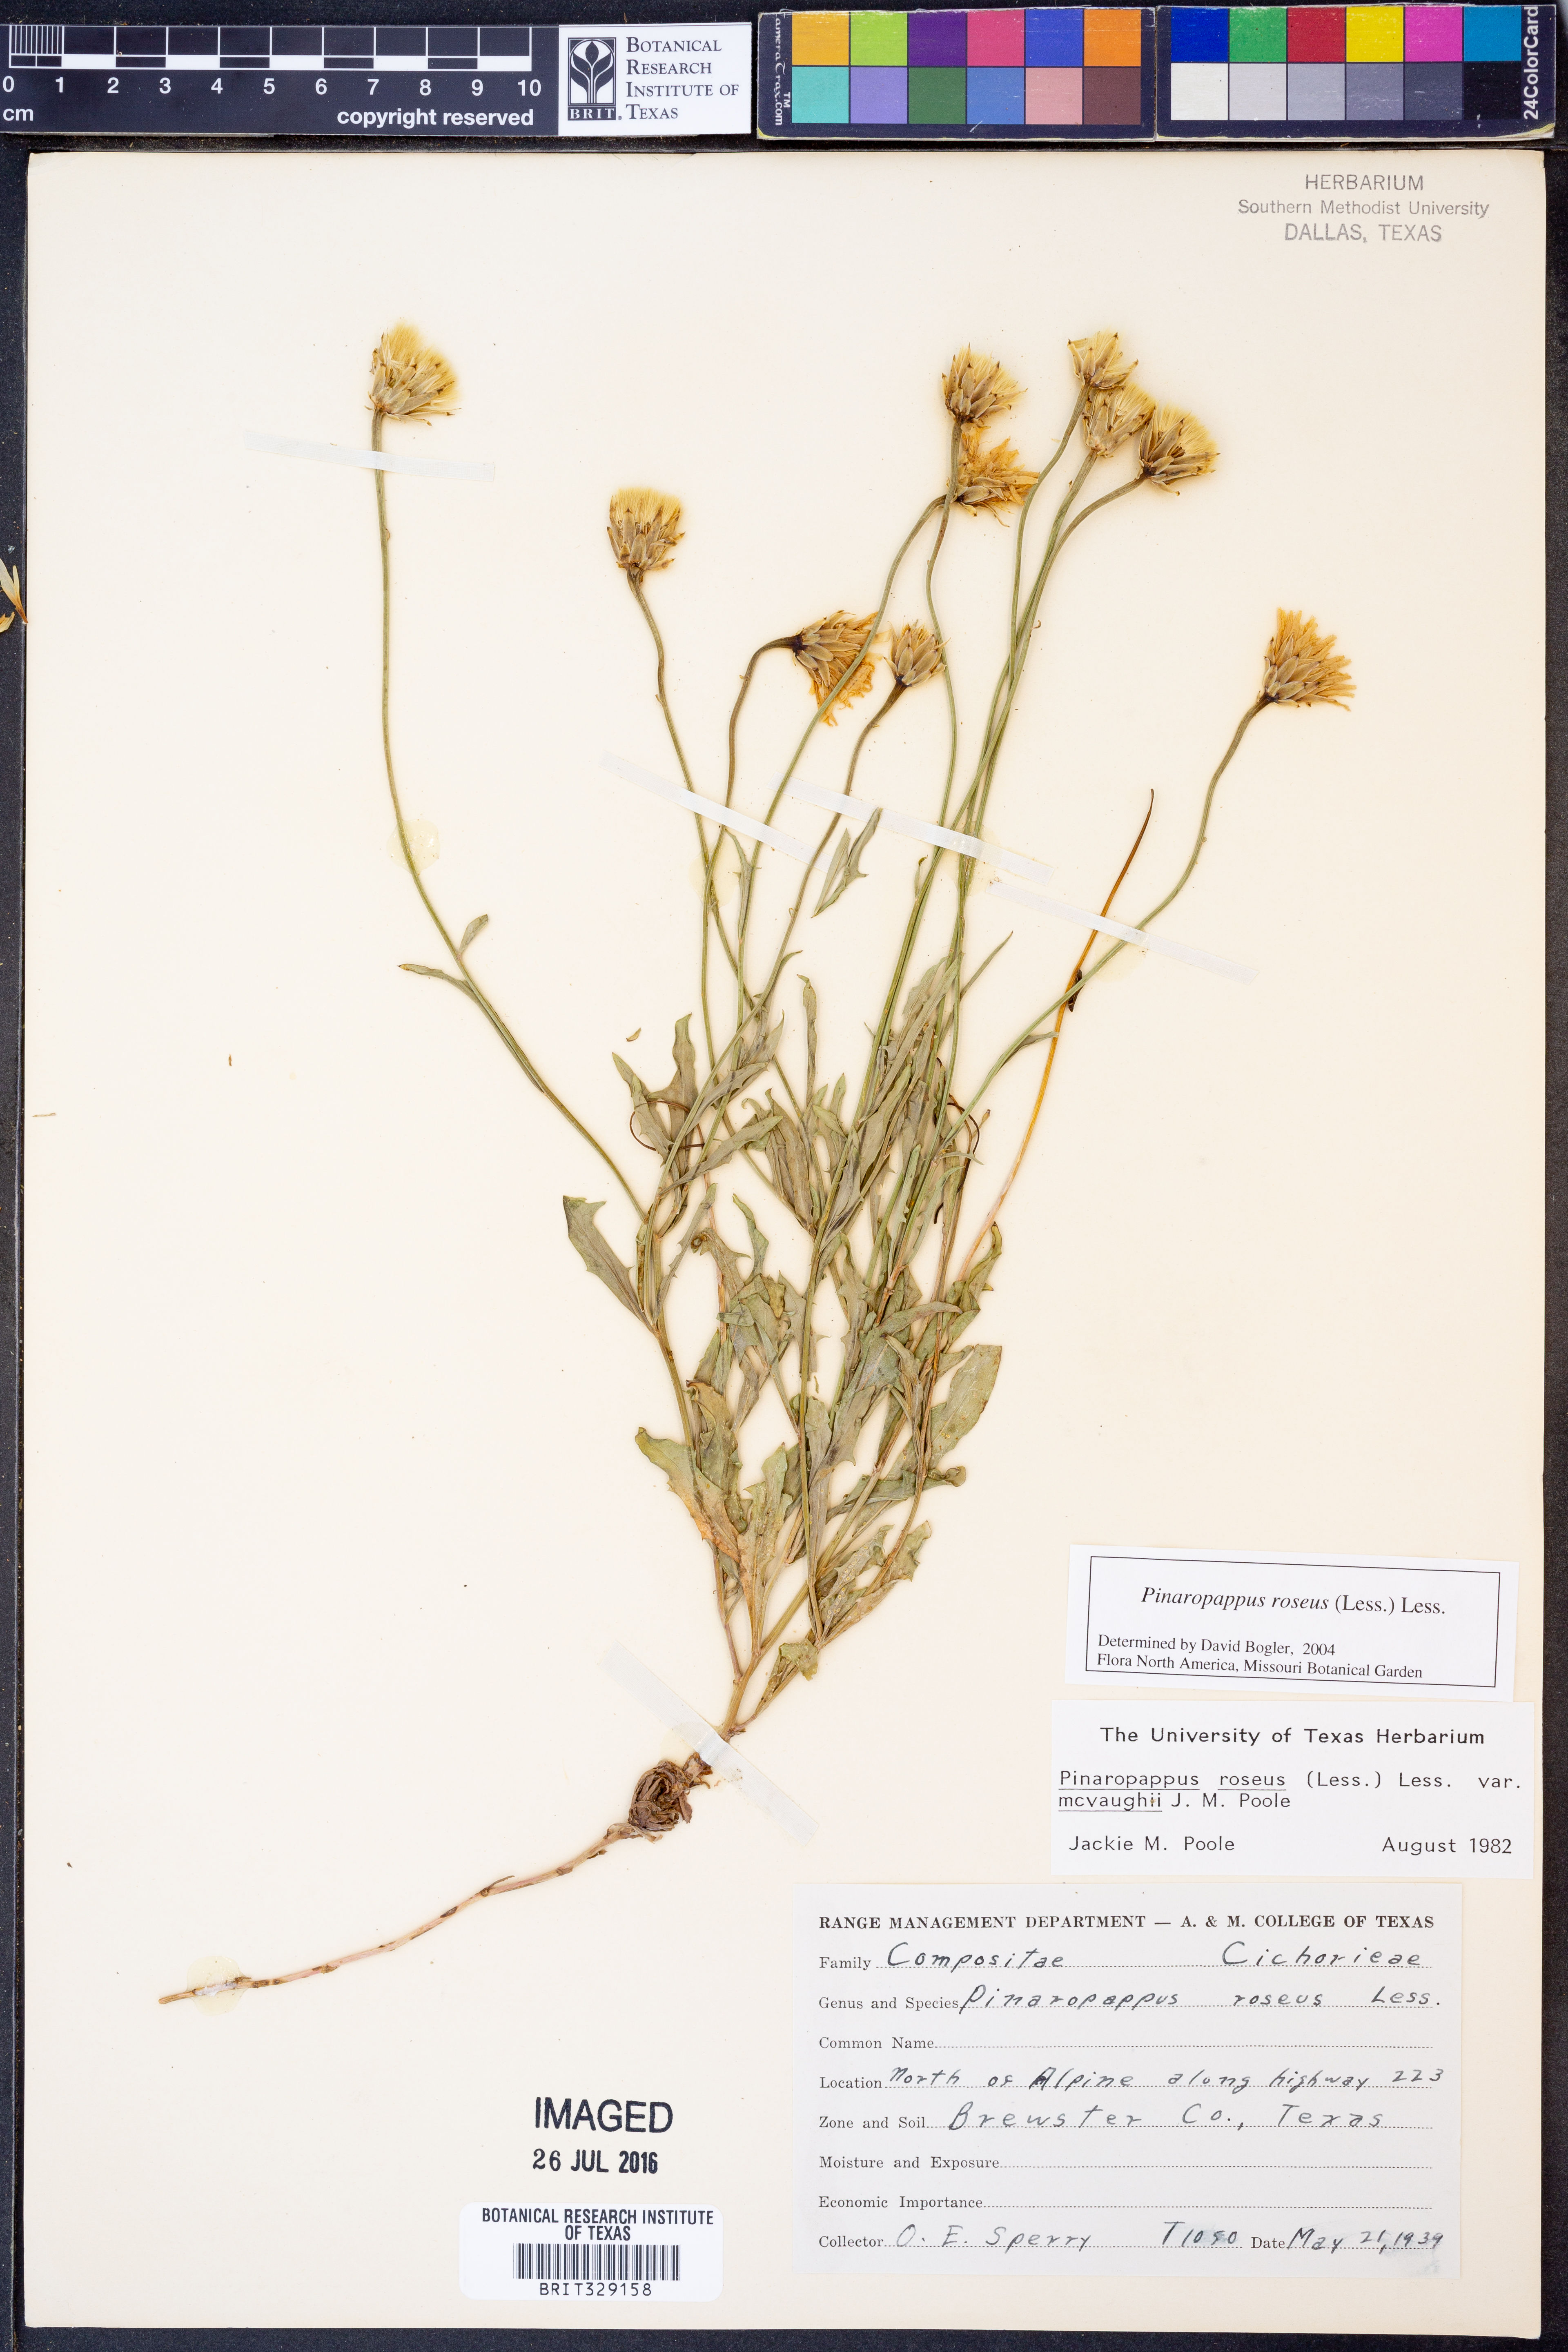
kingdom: Plantae
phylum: Tracheophyta
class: Magnoliopsida
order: Asterales
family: Asteraceae
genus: Pinaropappus
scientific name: Pinaropappus roseus
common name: Rock-lettuce
